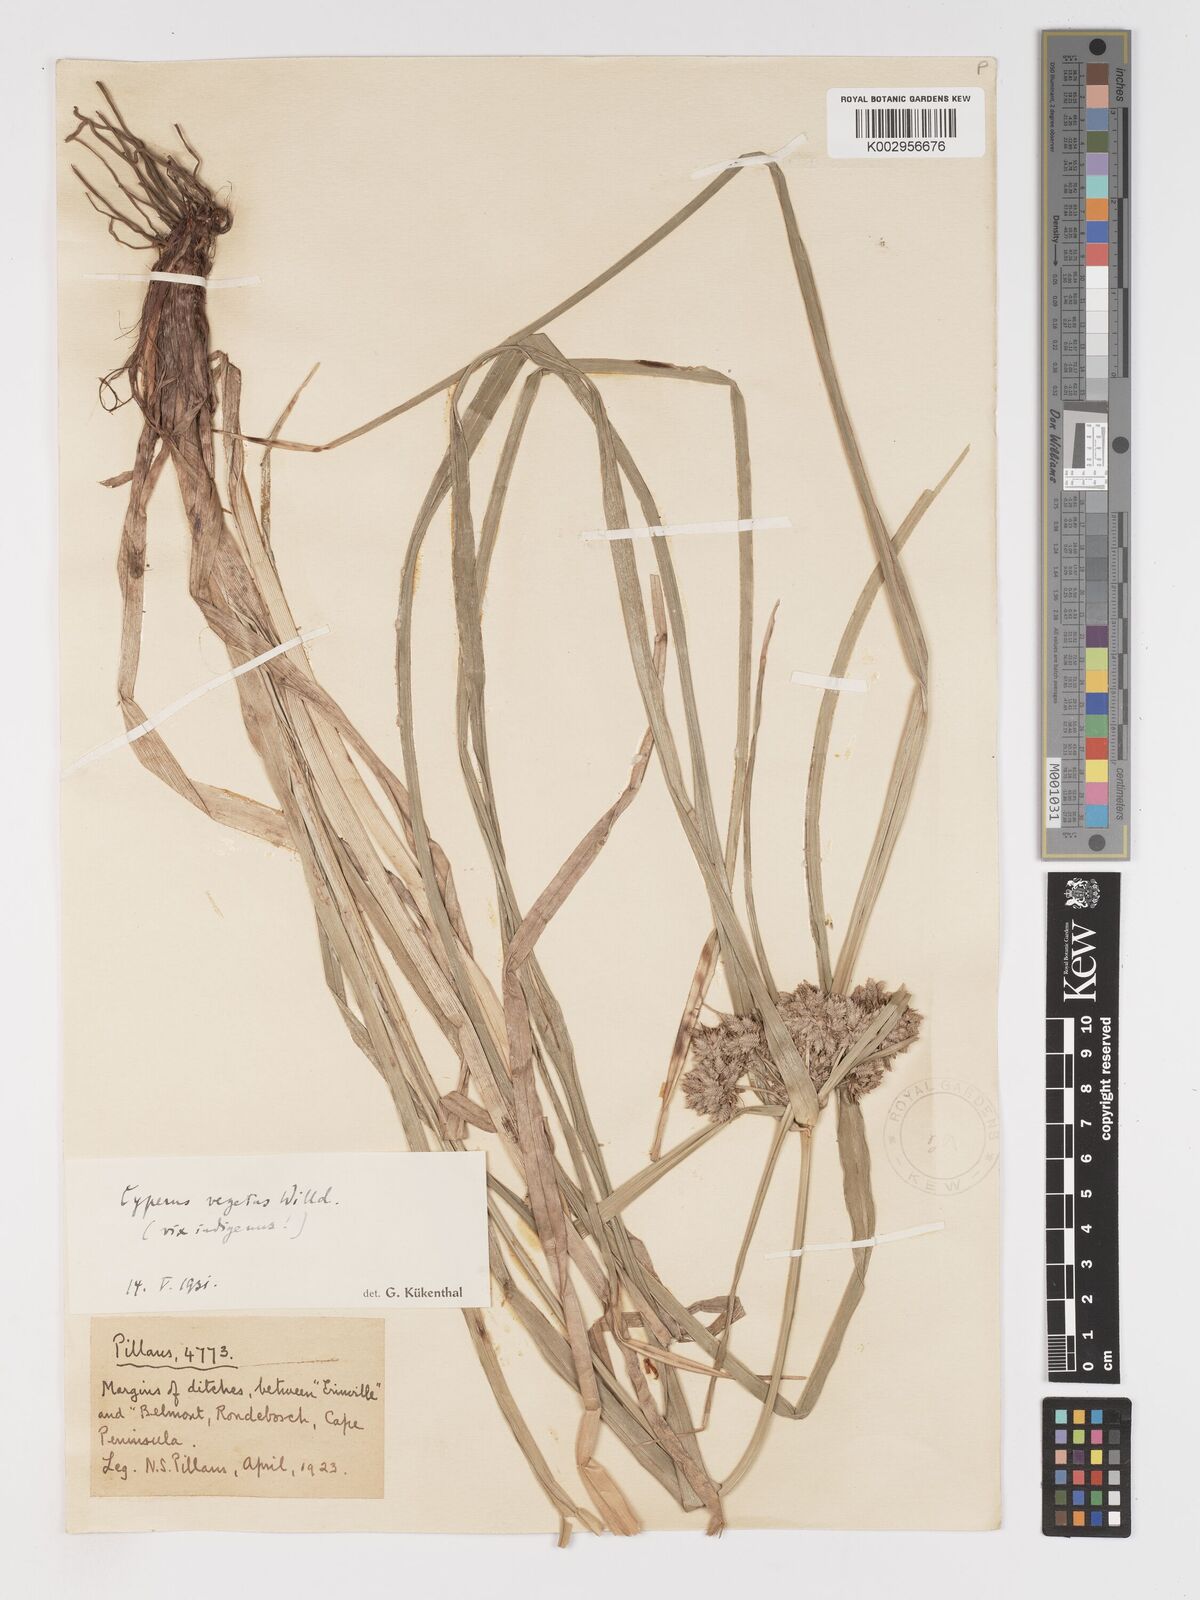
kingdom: Plantae
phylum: Tracheophyta
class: Liliopsida
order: Poales
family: Cyperaceae
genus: Cyperus
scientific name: Cyperus eragrostis
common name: Tall flatsedge
